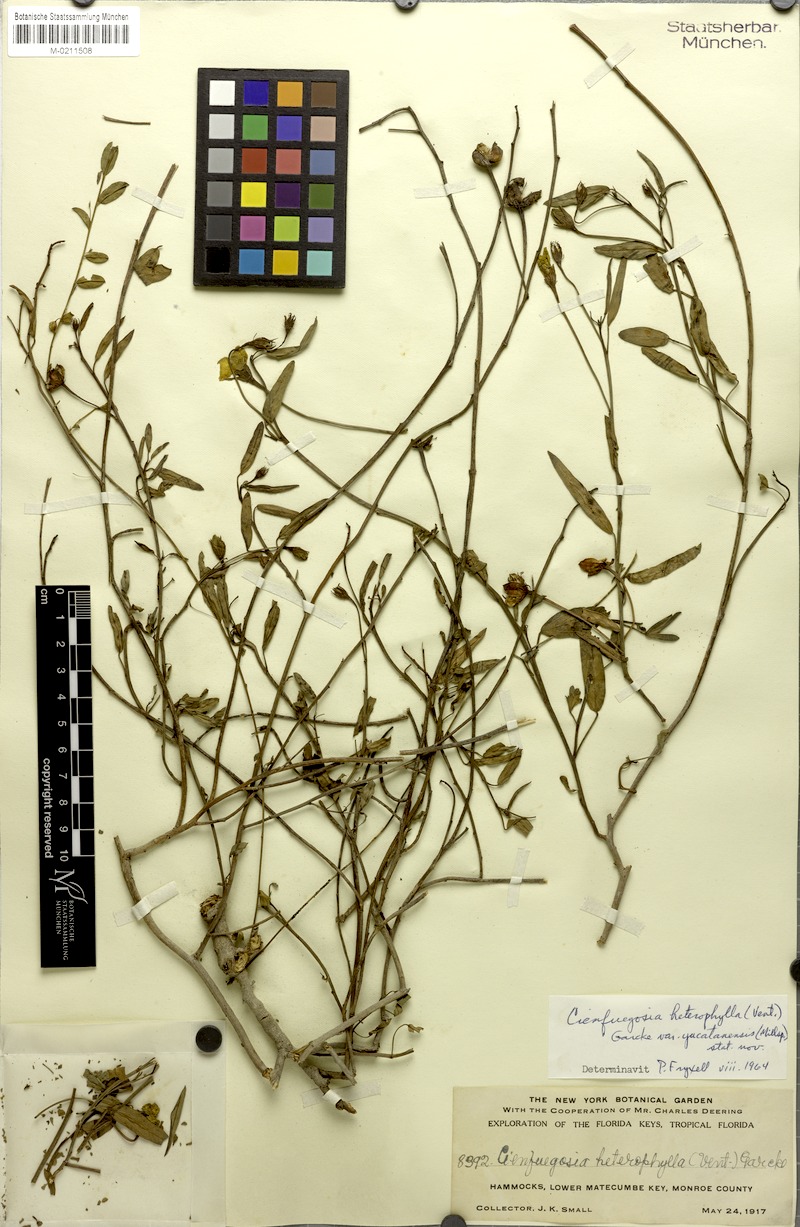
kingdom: Plantae
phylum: Tracheophyta
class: Magnoliopsida
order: Malvales
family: Malvaceae
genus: Cienfuegosia
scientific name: Cienfuegosia yucatanensis
